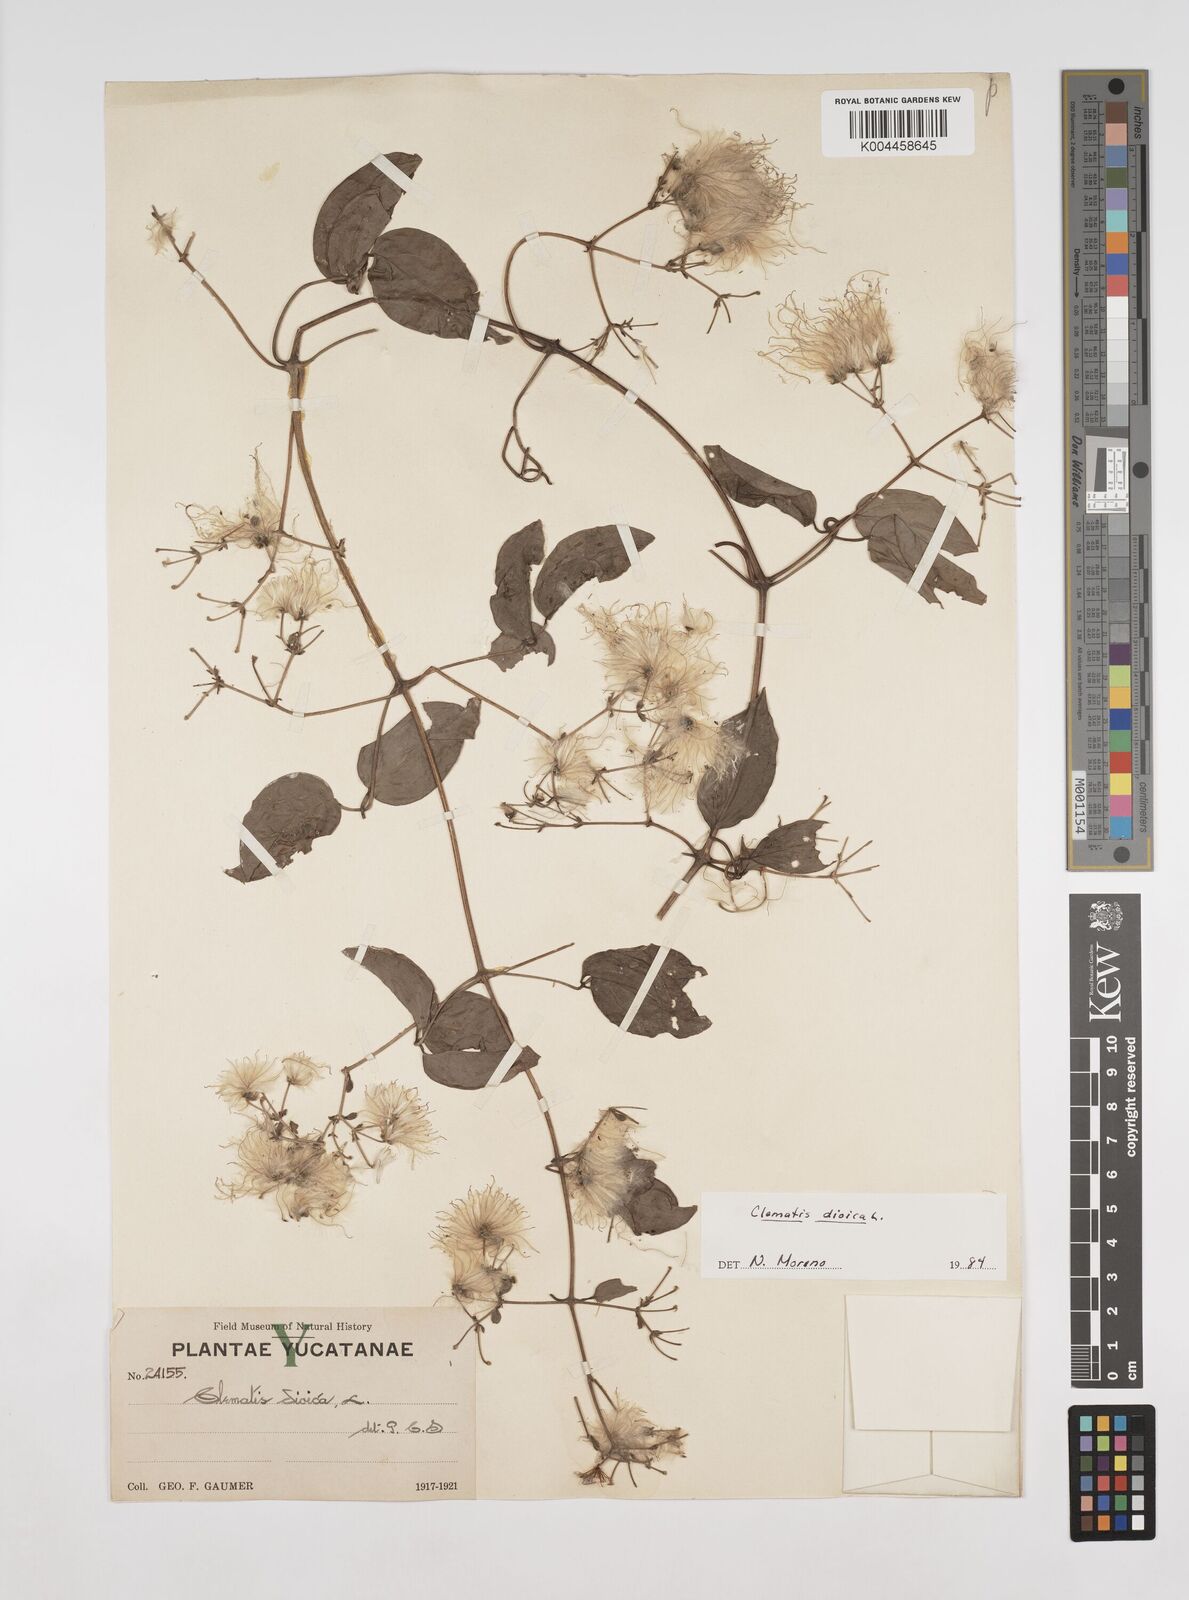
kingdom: Plantae
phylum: Tracheophyta
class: Magnoliopsida
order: Ranunculales
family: Ranunculaceae
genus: Clematis
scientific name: Clematis dioica
